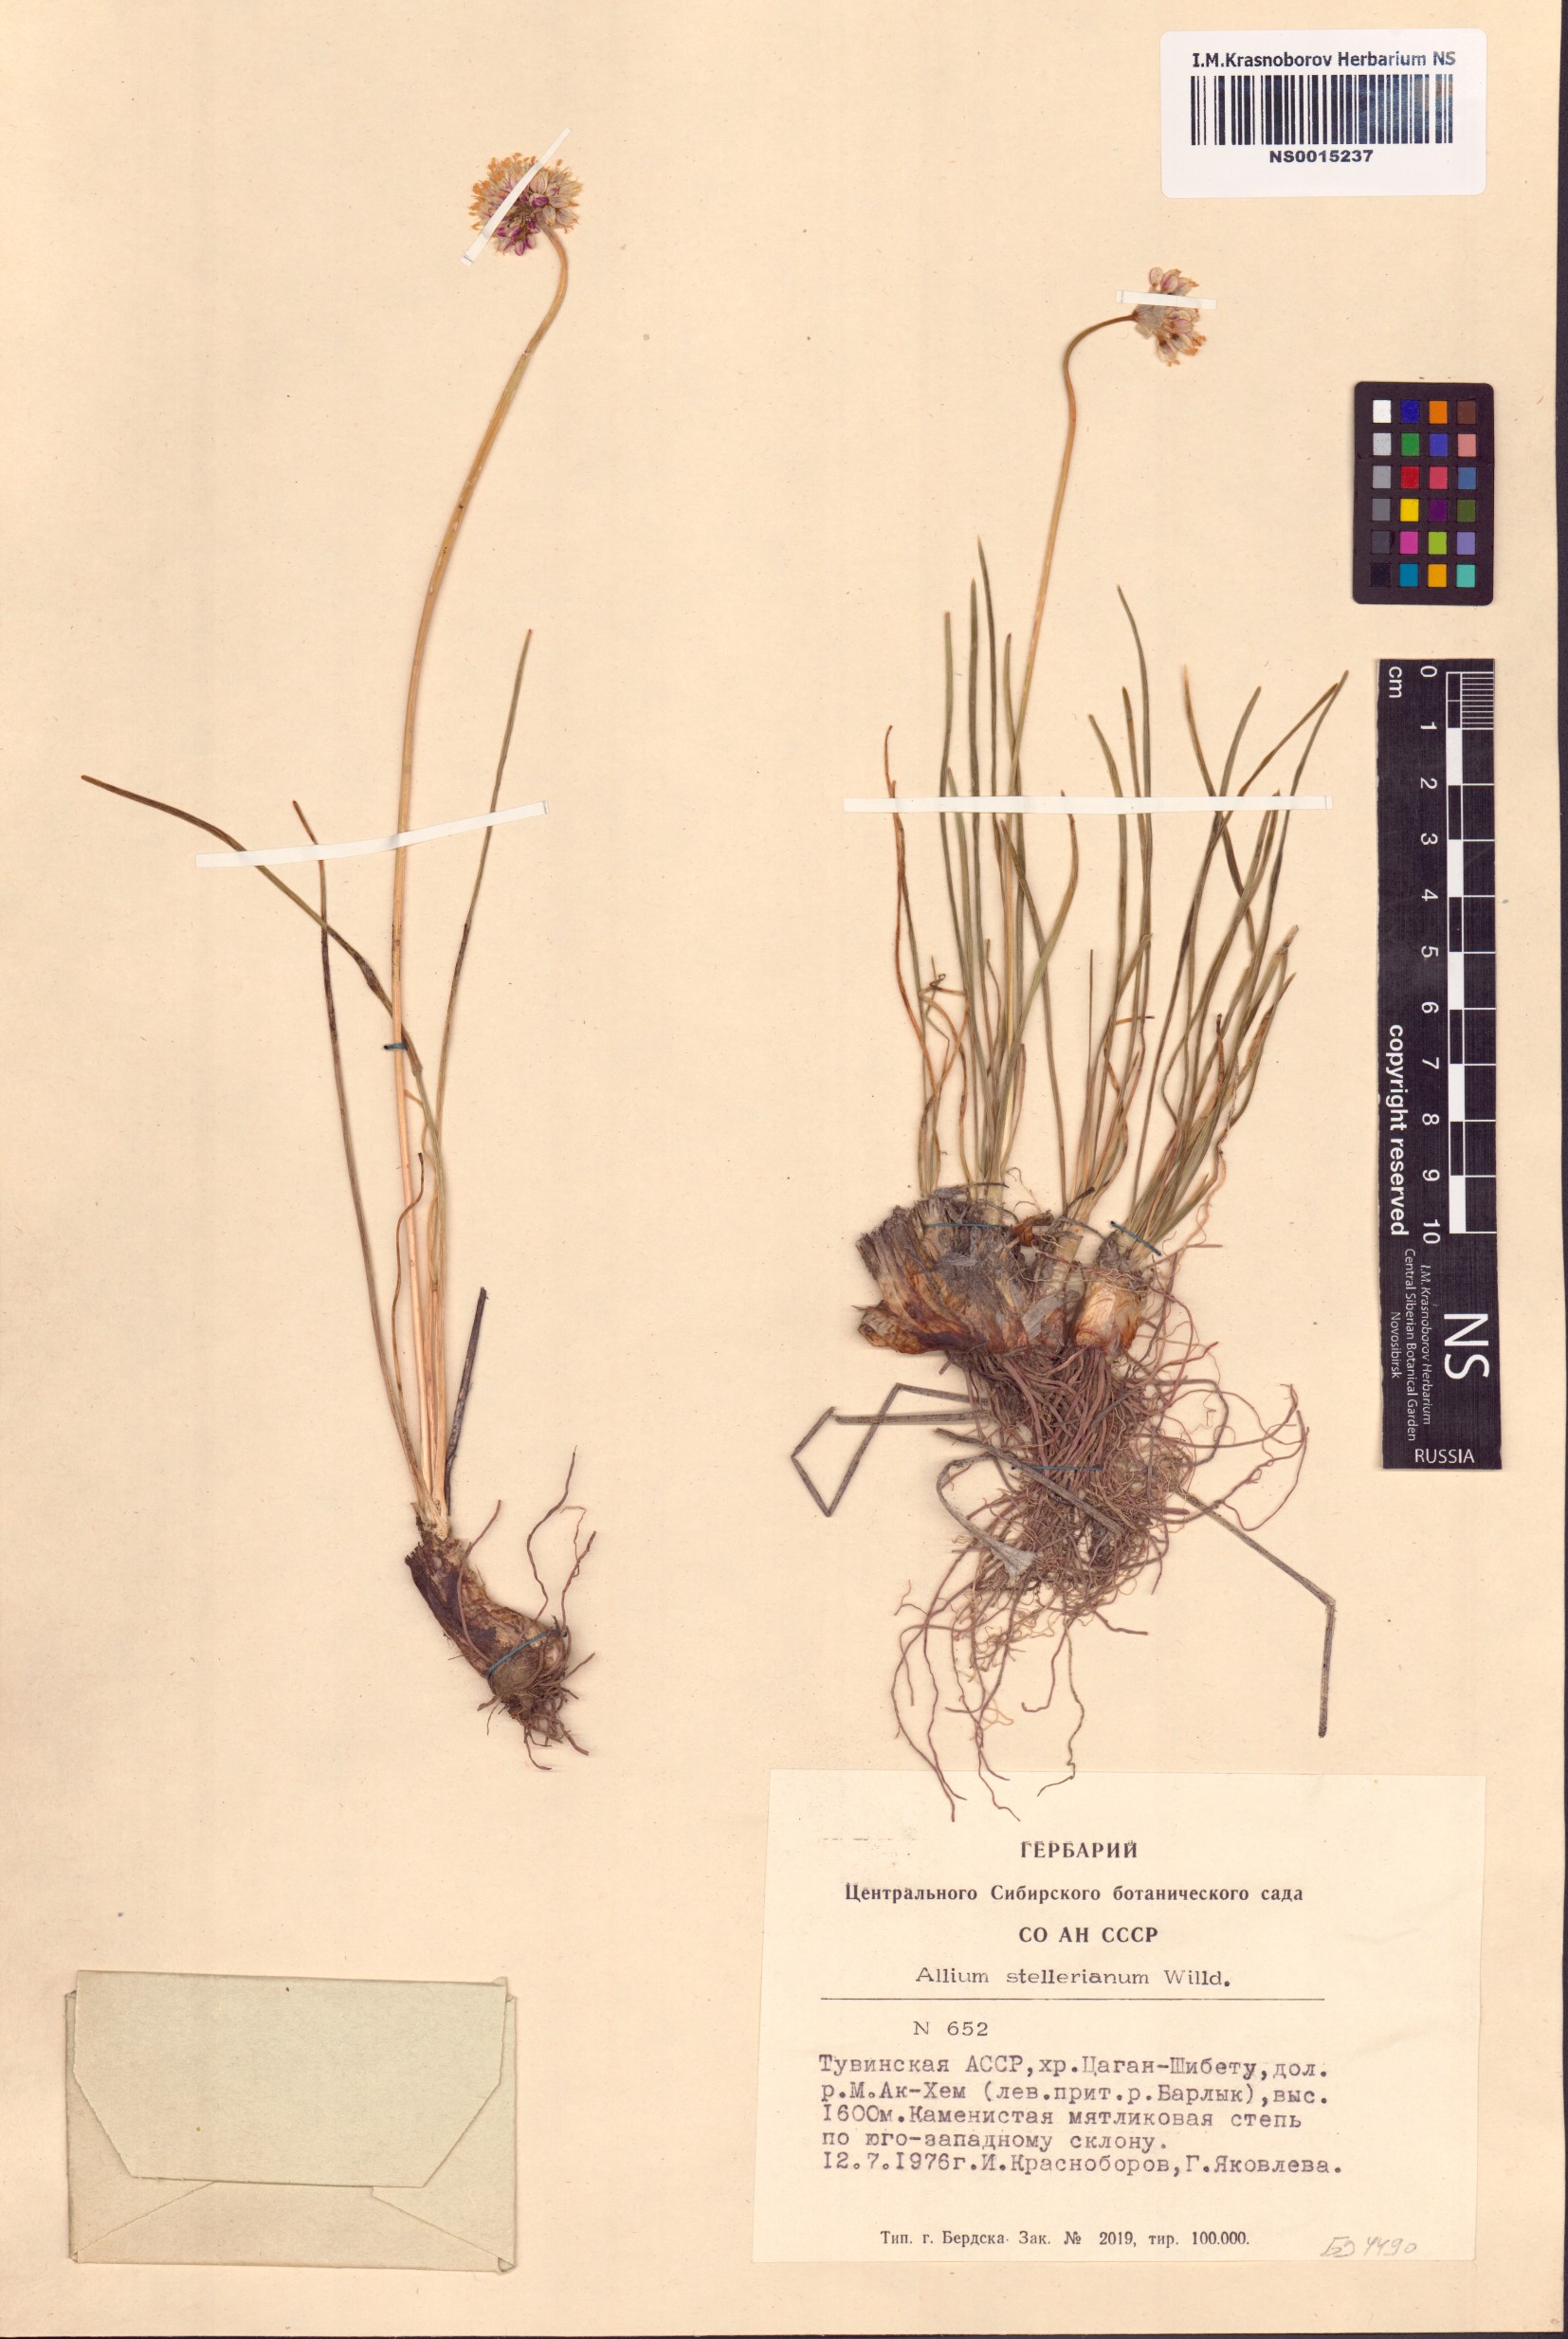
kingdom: Plantae
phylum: Tracheophyta
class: Liliopsida
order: Asparagales
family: Amaryllidaceae
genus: Allium
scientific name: Allium stellerianum
